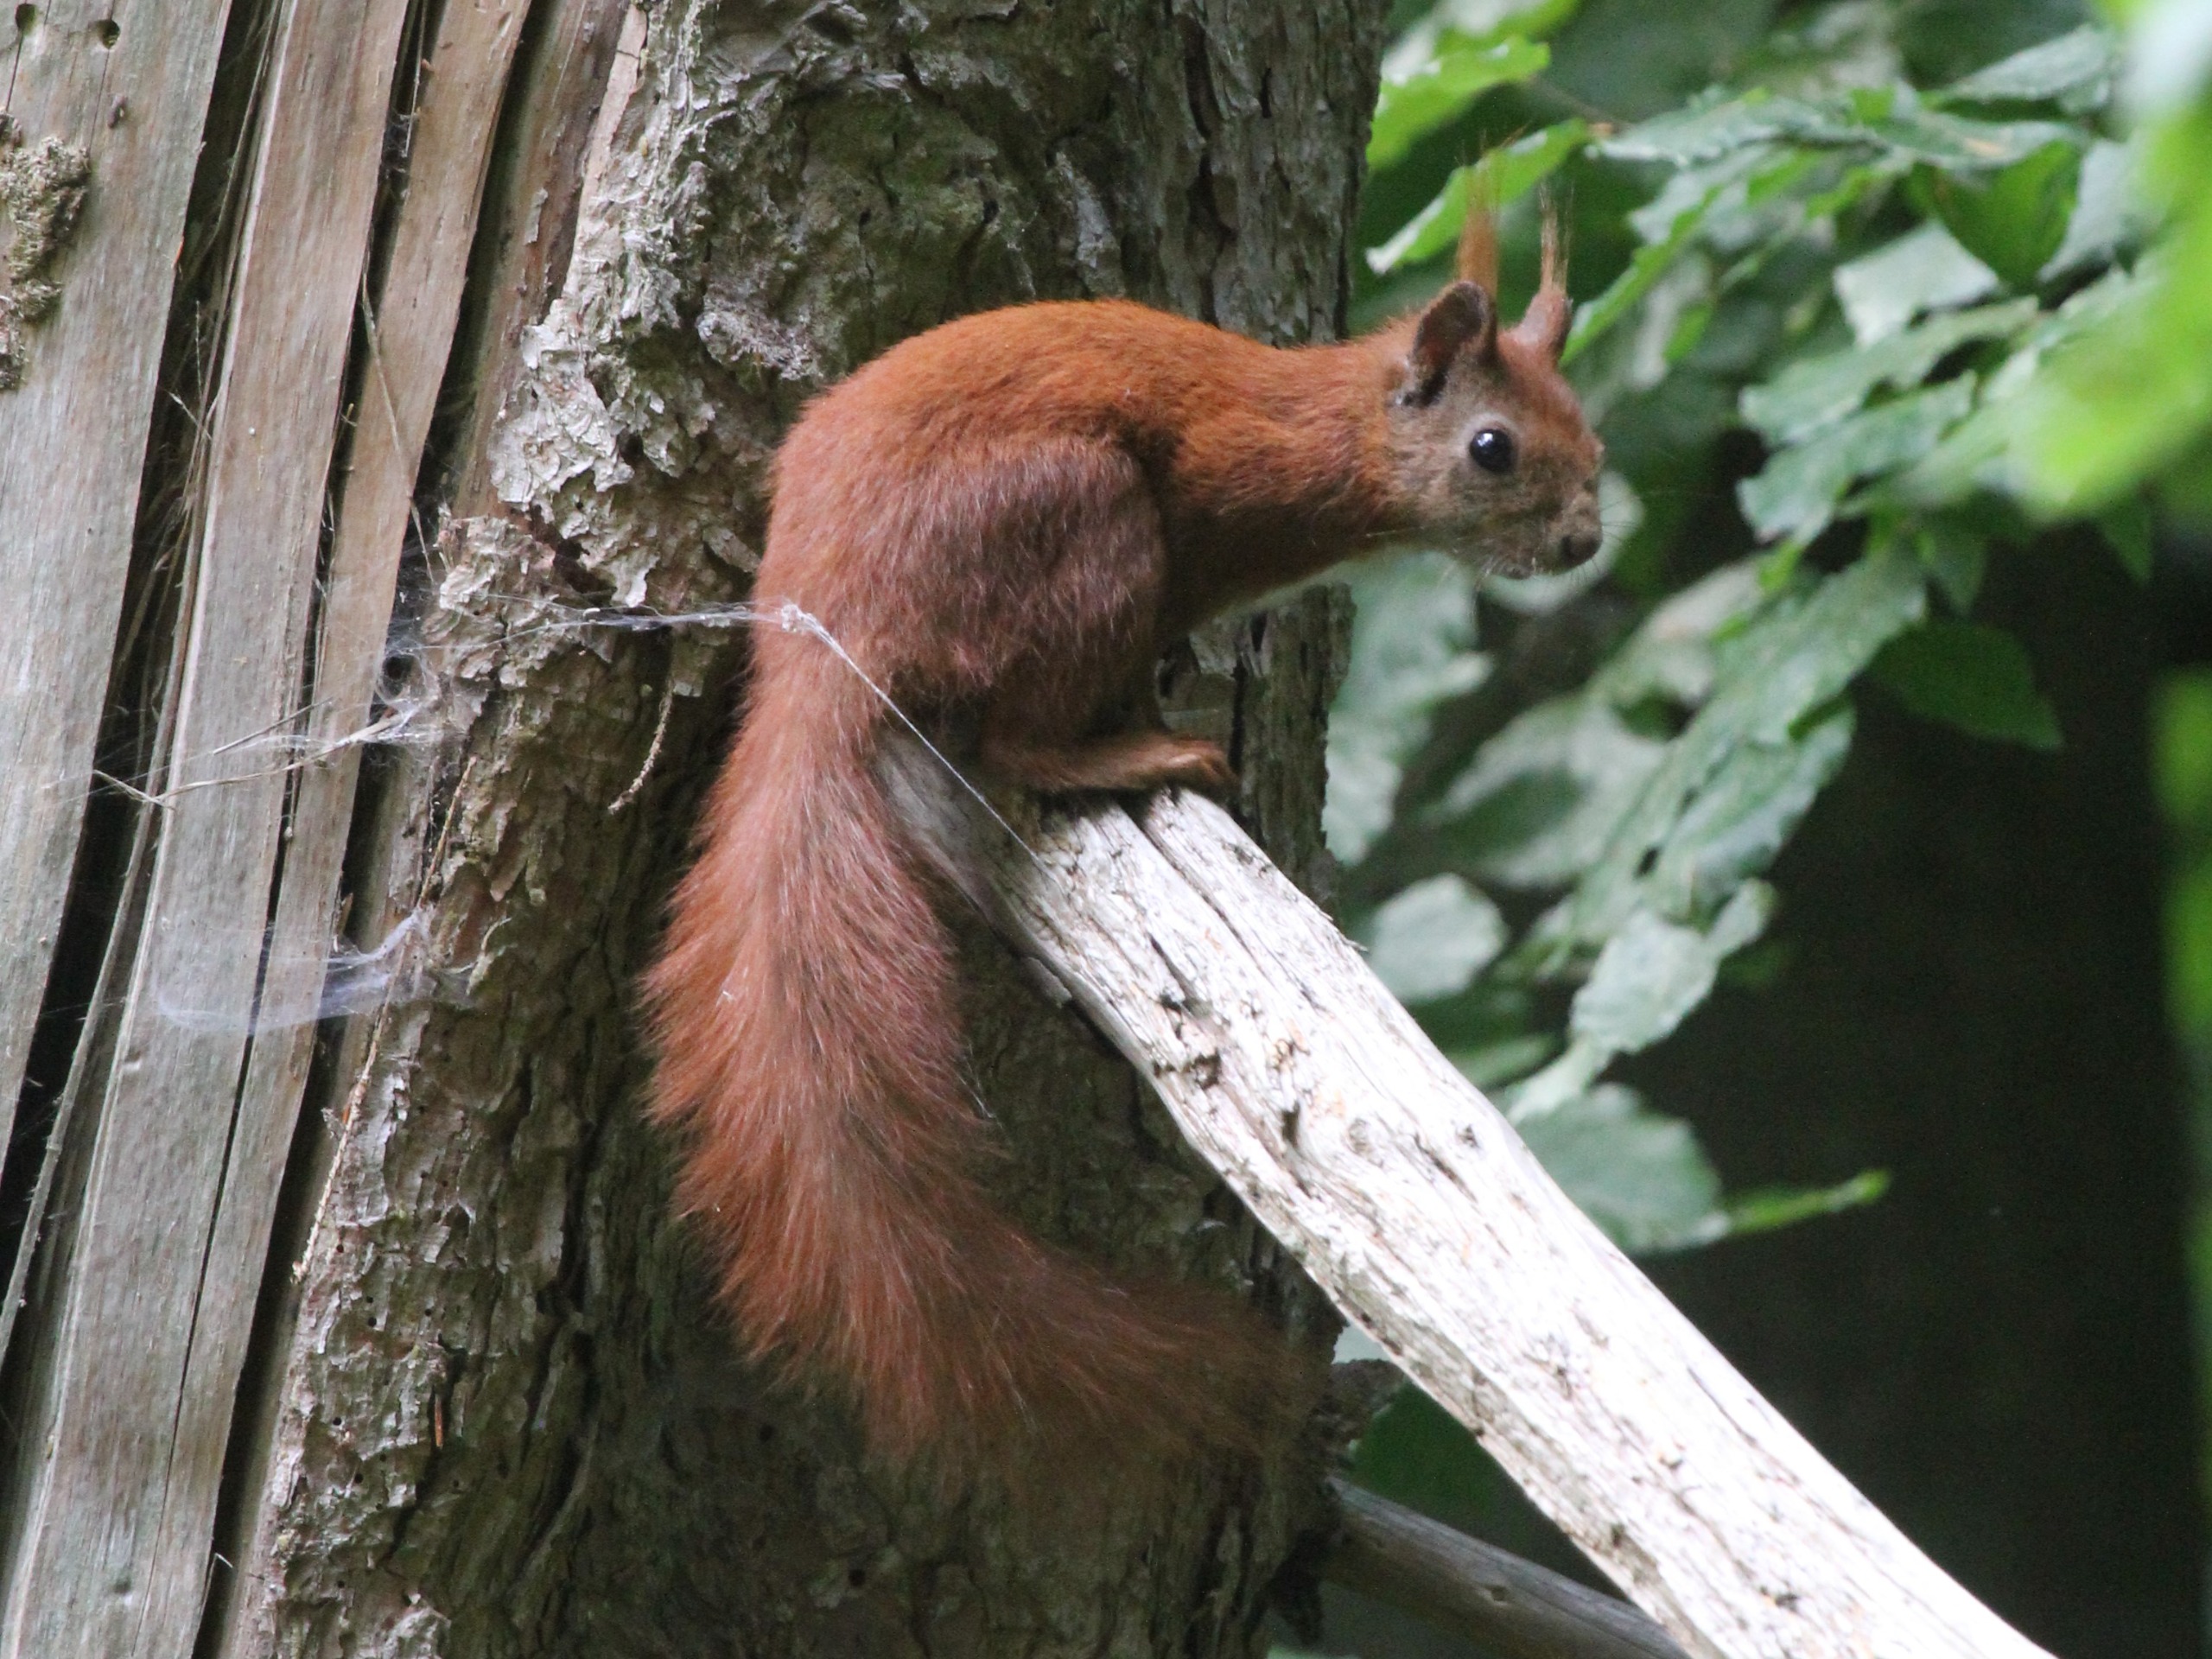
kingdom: Animalia
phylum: Chordata
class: Mammalia
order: Rodentia
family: Sciuridae
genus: Sciurus
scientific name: Sciurus vulgaris
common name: Egern
